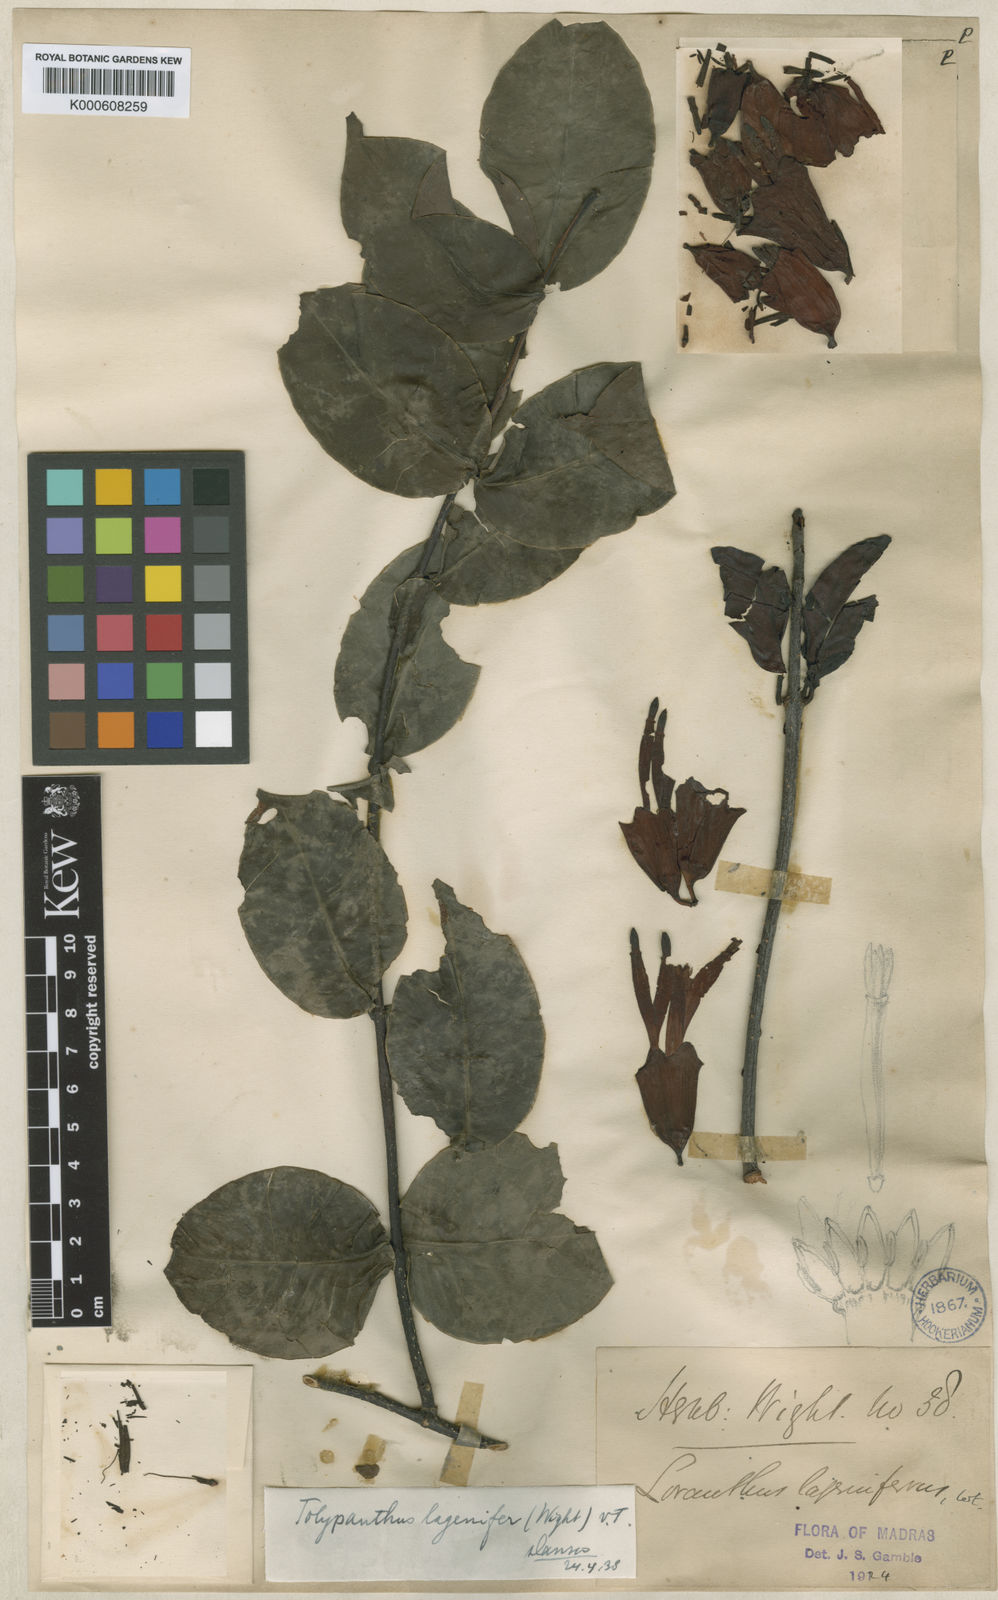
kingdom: Plantae
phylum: Tracheophyta
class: Magnoliopsida
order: Santalales
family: Loranthaceae
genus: Tolypanthus
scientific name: Tolypanthus
